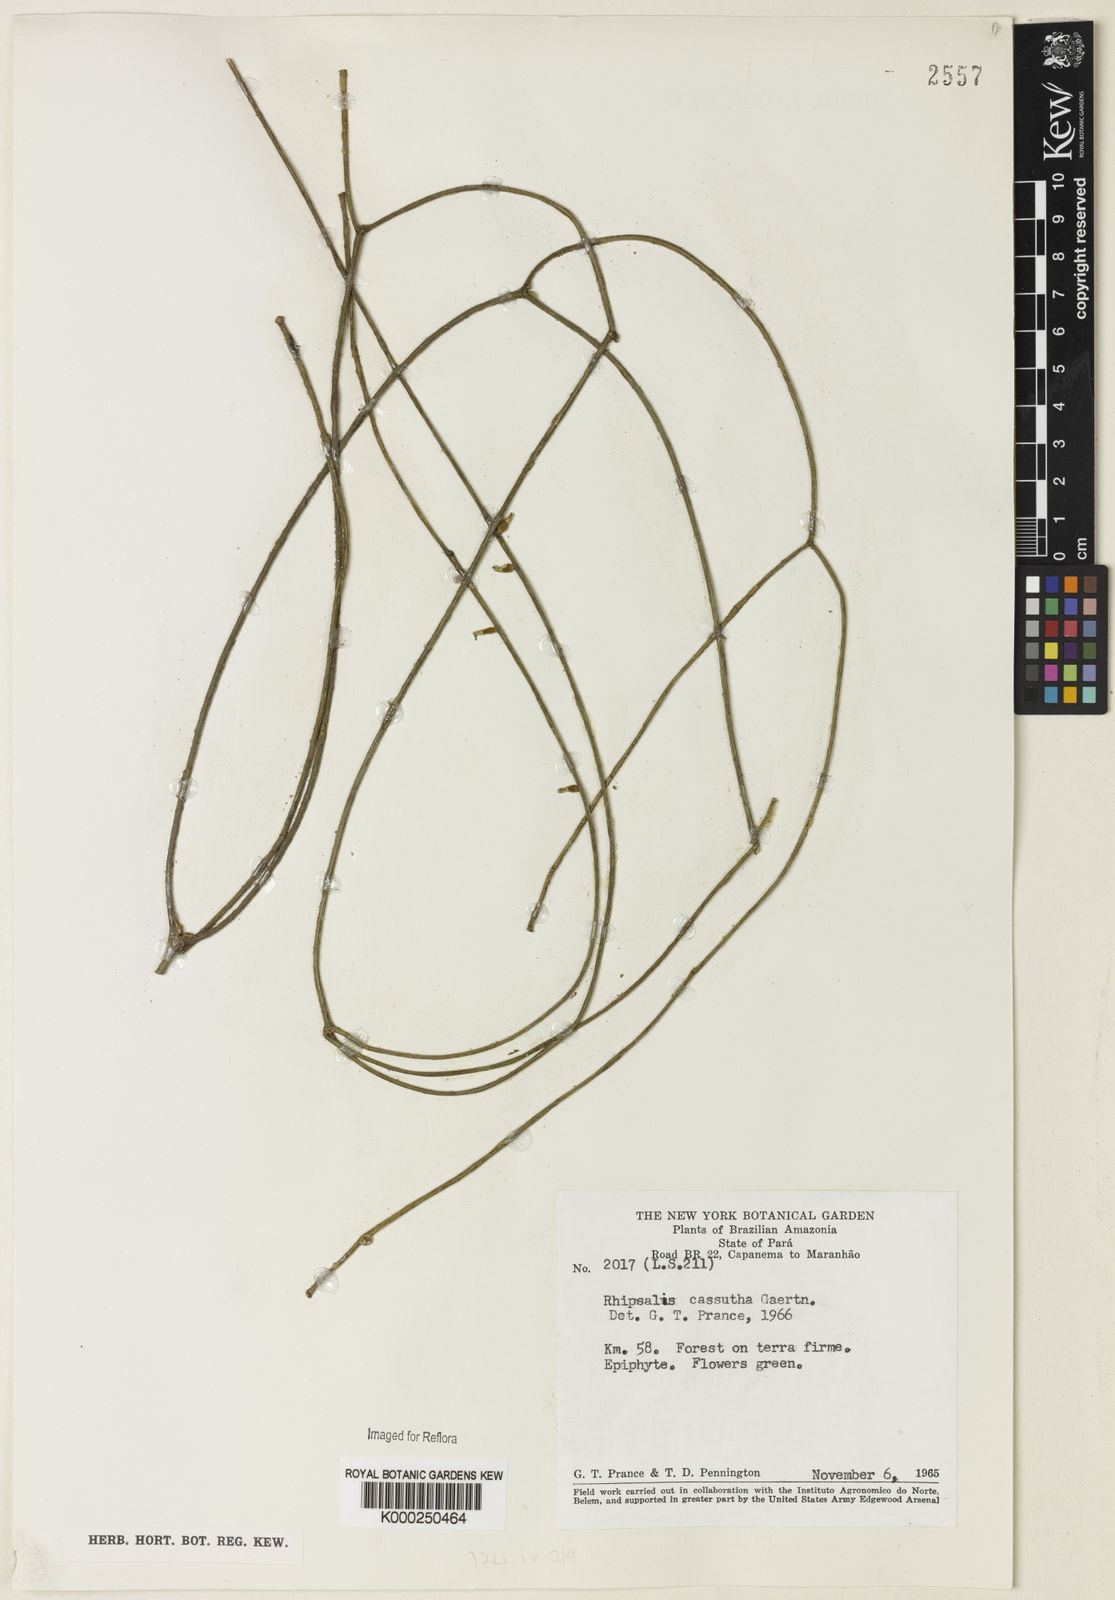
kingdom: Plantae
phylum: Tracheophyta
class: Magnoliopsida
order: Caryophyllales
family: Cactaceae
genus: Rhipsalis
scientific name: Rhipsalis baccifera
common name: Mistletoe cactus
